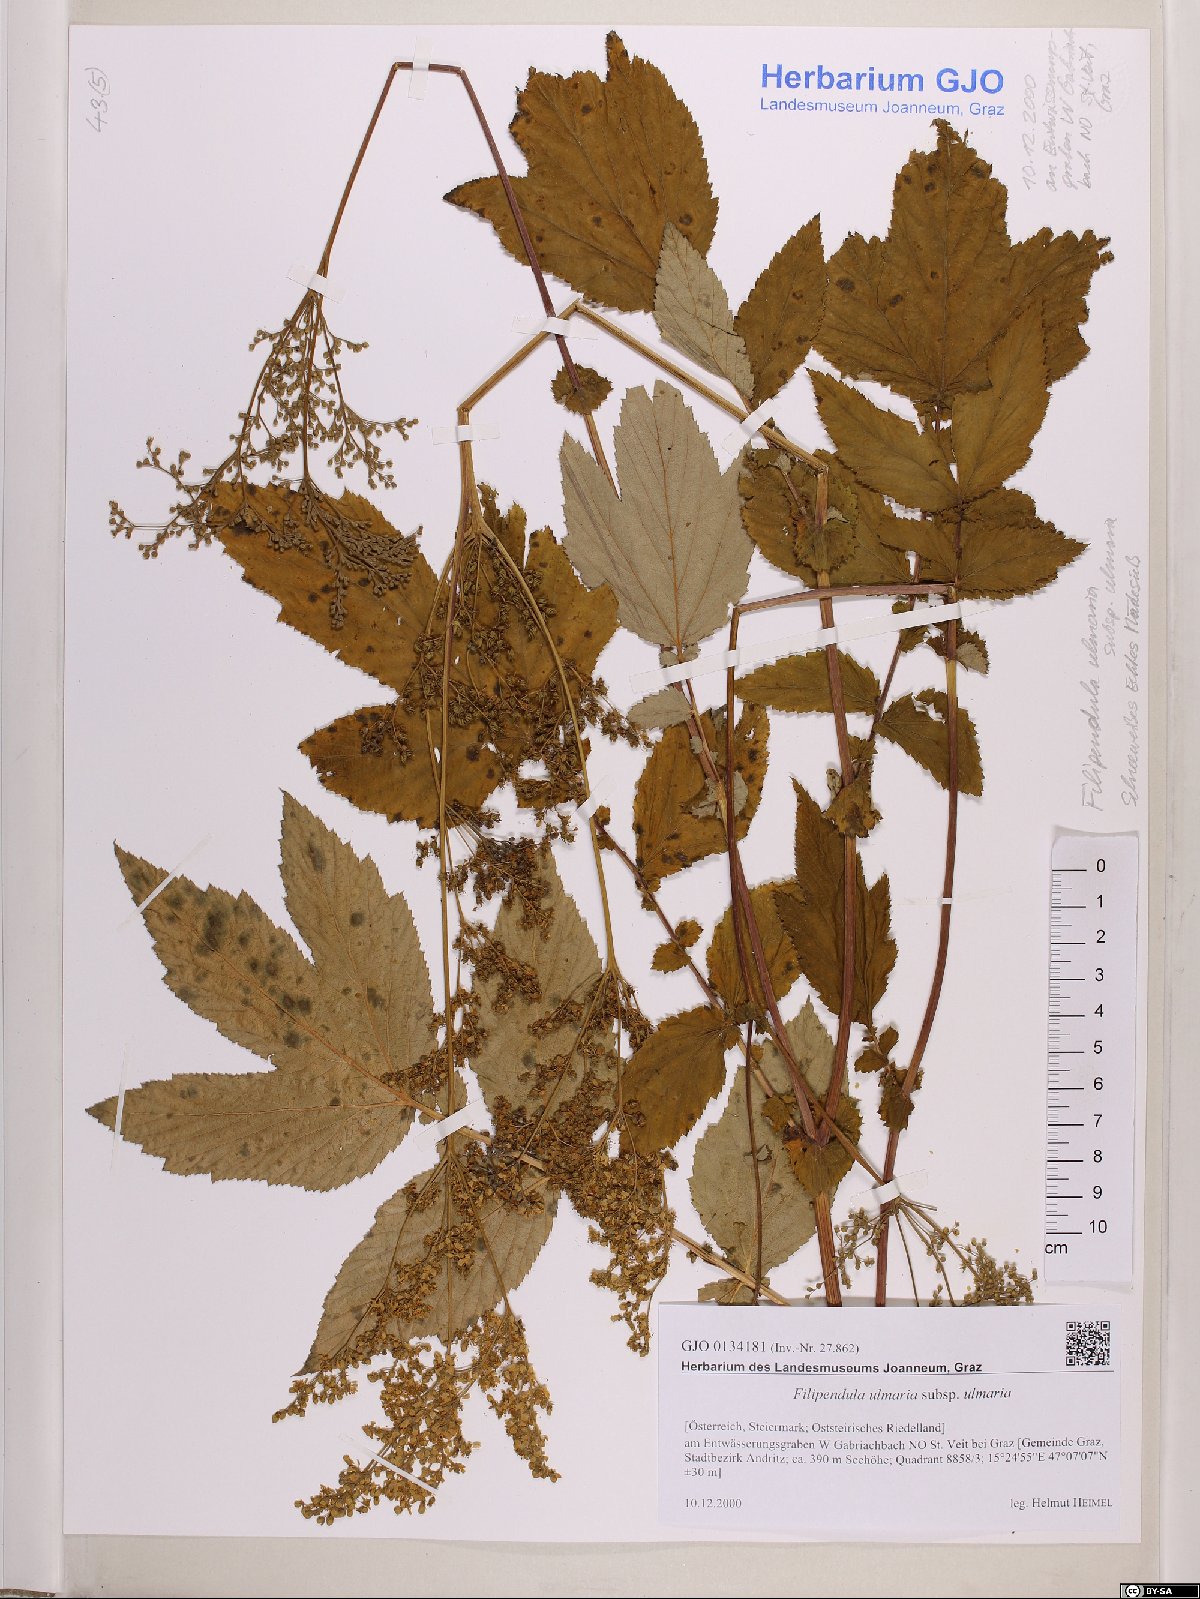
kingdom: Plantae
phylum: Tracheophyta
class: Magnoliopsida
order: Rosales
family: Rosaceae
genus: Filipendula
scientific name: Filipendula ulmaria
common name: Meadowsweet
